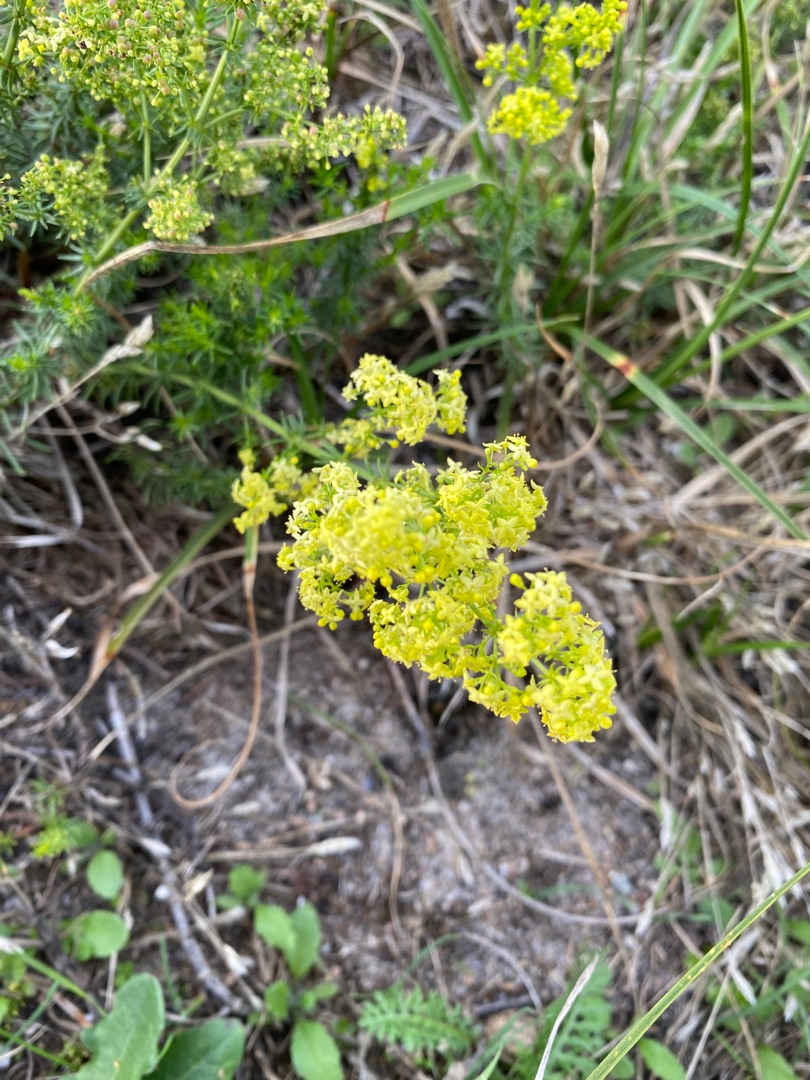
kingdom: Plantae
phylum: Tracheophyta
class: Magnoliopsida
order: Gentianales
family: Rubiaceae
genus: Galium
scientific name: Galium verum
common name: Gul snerre
